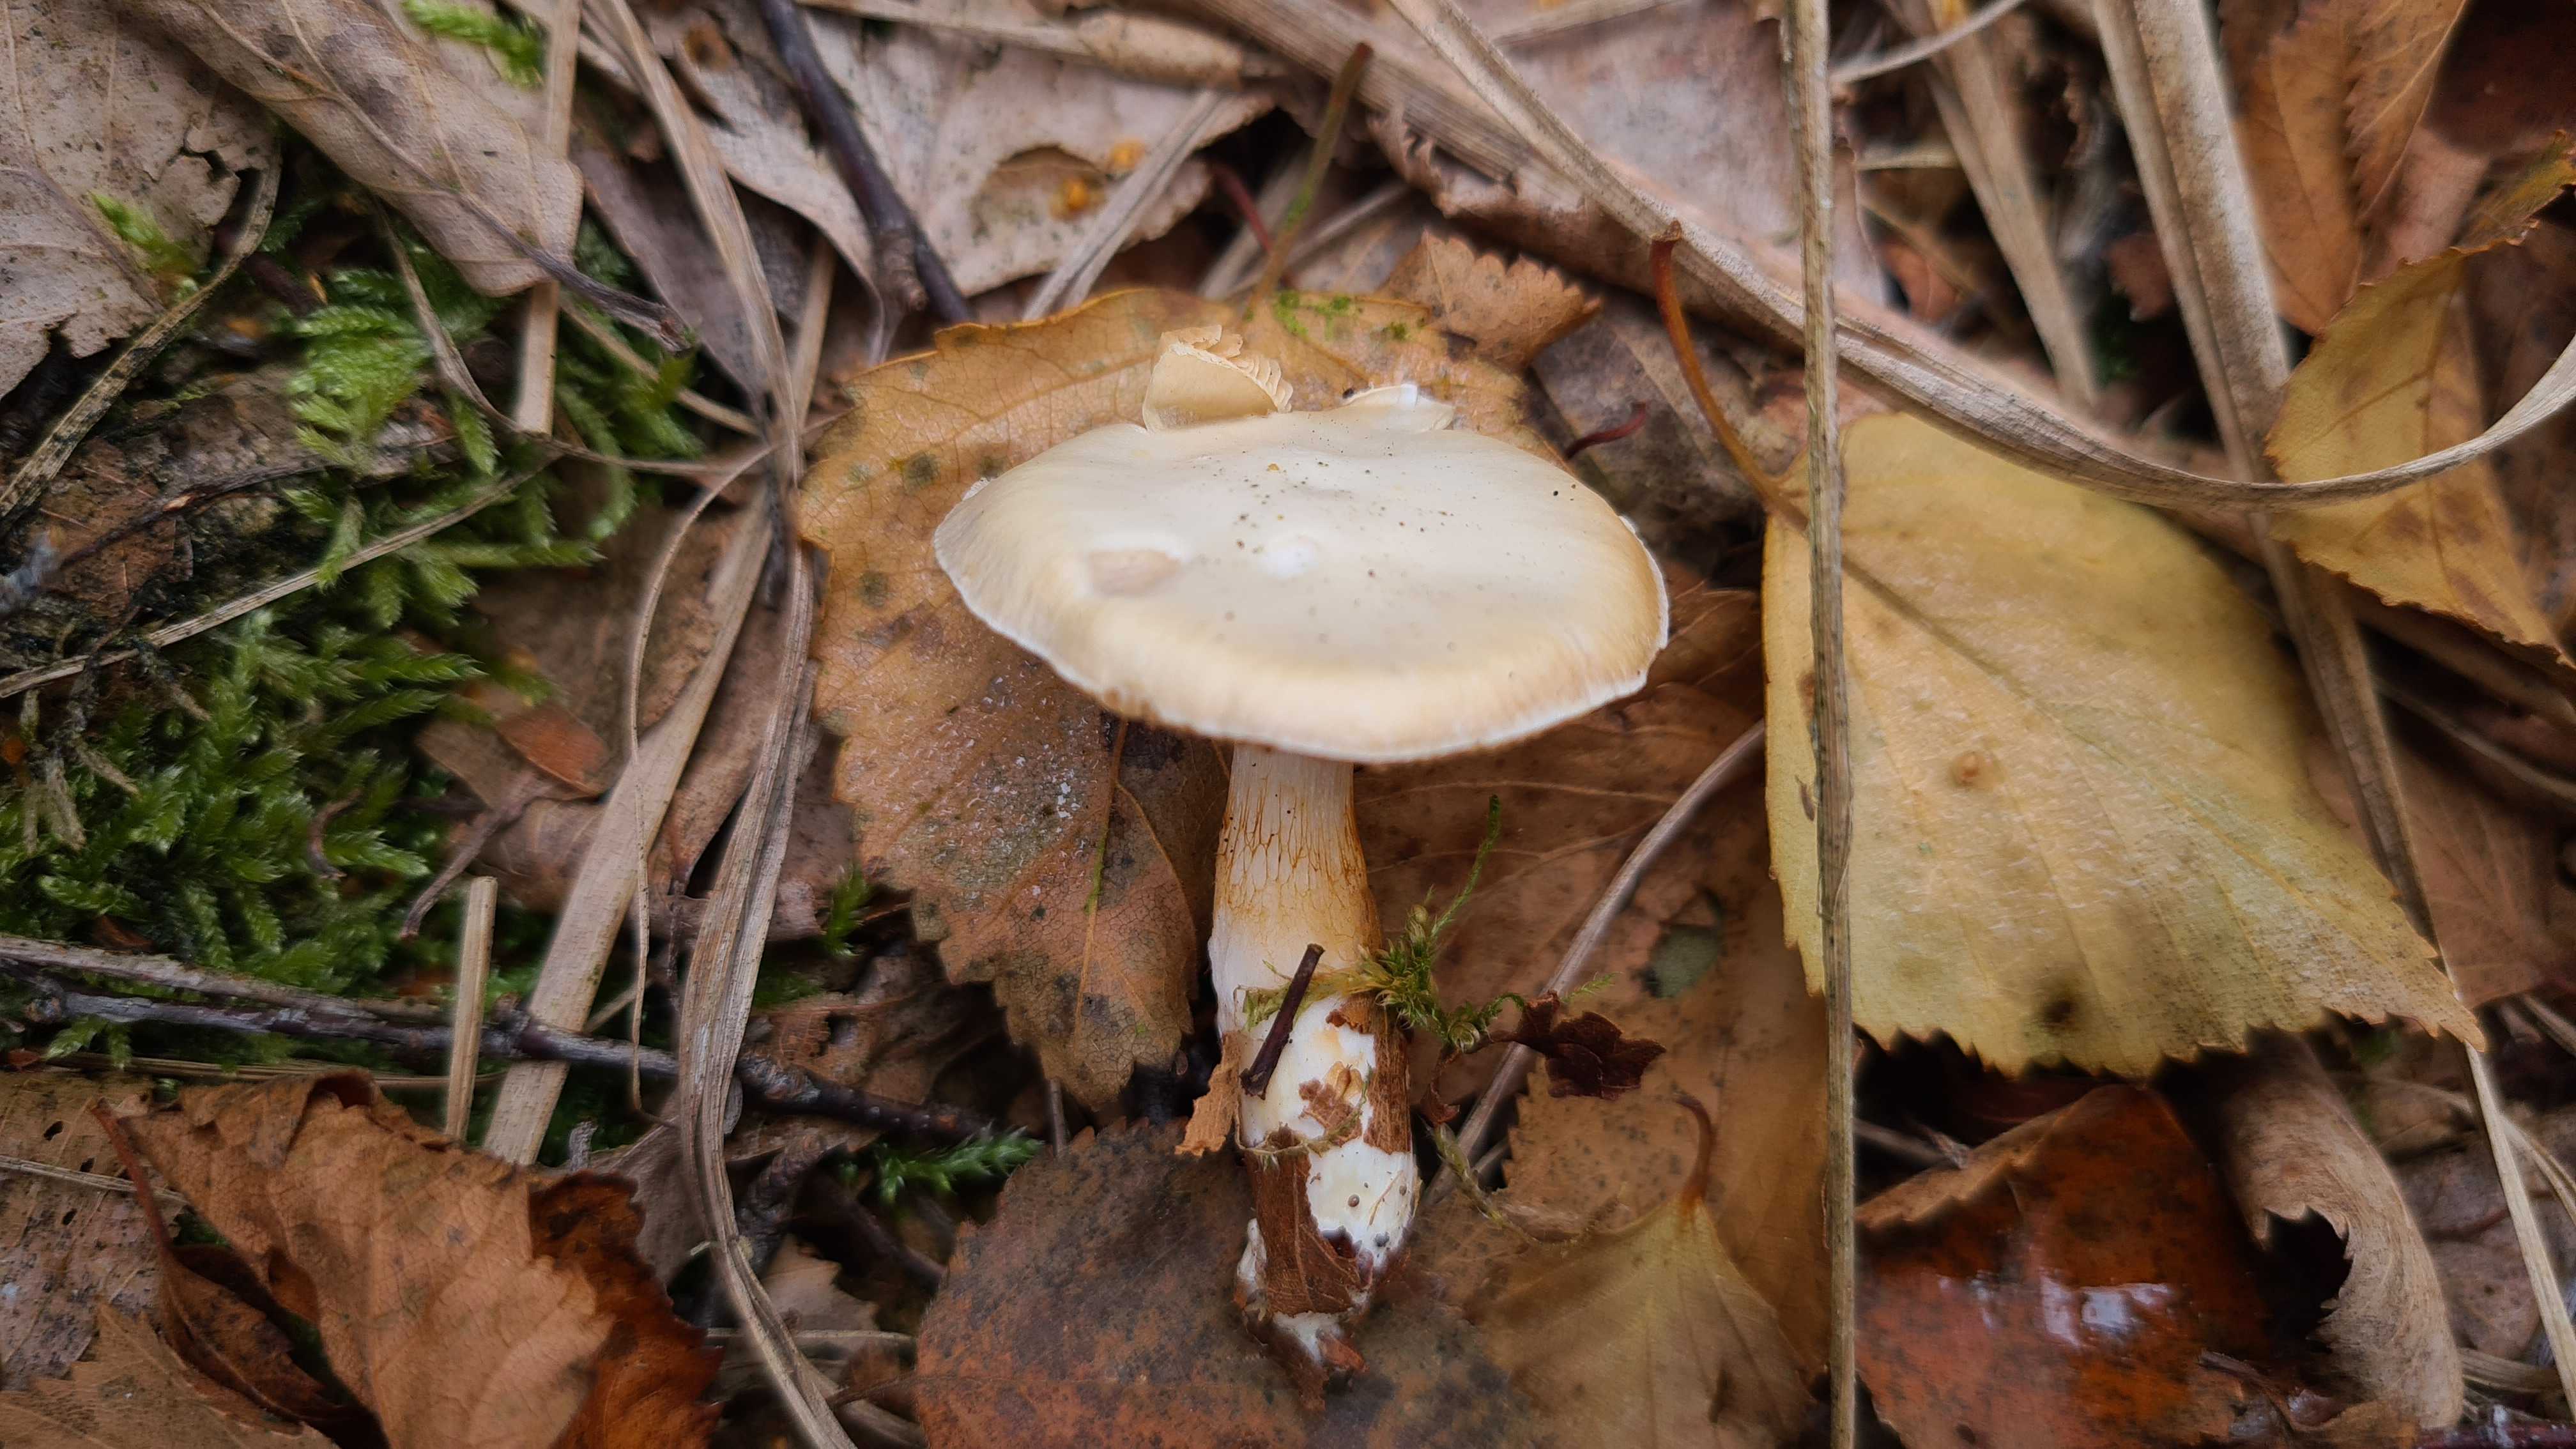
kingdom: Fungi
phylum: Basidiomycota
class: Agaricomycetes
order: Agaricales
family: Cortinariaceae
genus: Thaxterogaster
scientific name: Thaxterogaster barbatus
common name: elfenbens-slørhat
